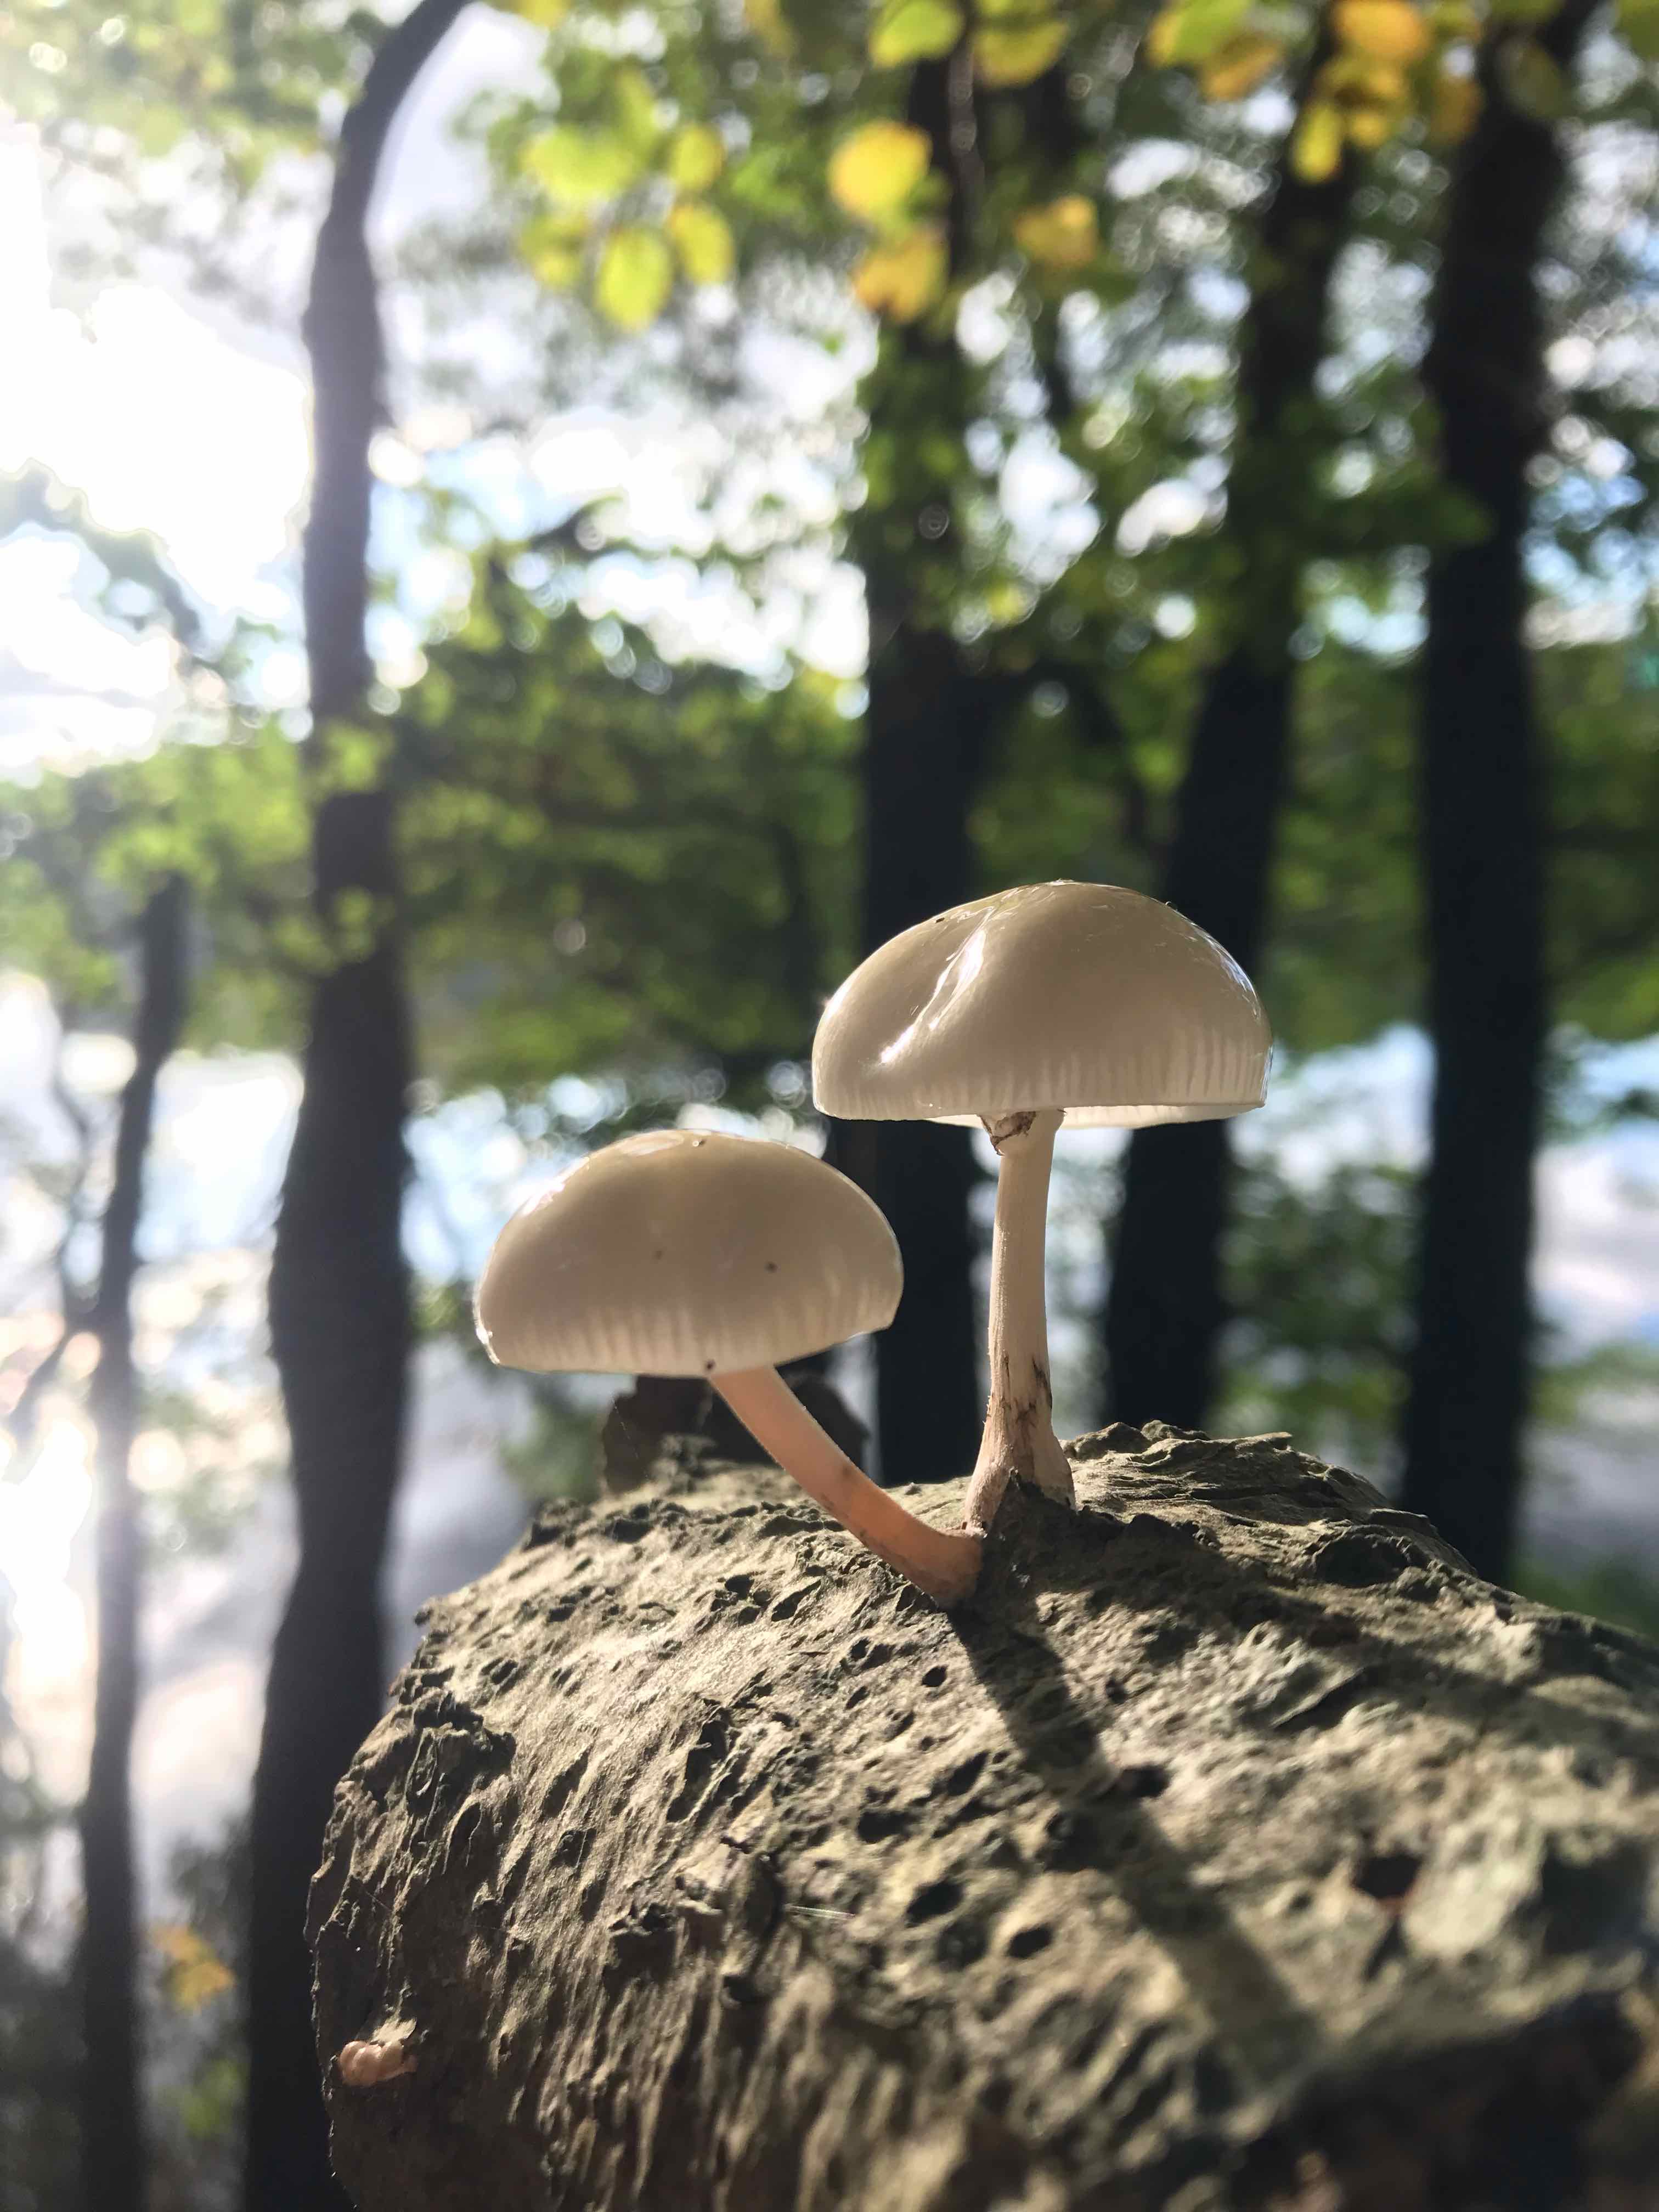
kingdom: Fungi
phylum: Basidiomycota
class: Agaricomycetes
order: Agaricales
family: Physalacriaceae
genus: Mucidula
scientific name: Mucidula mucida
